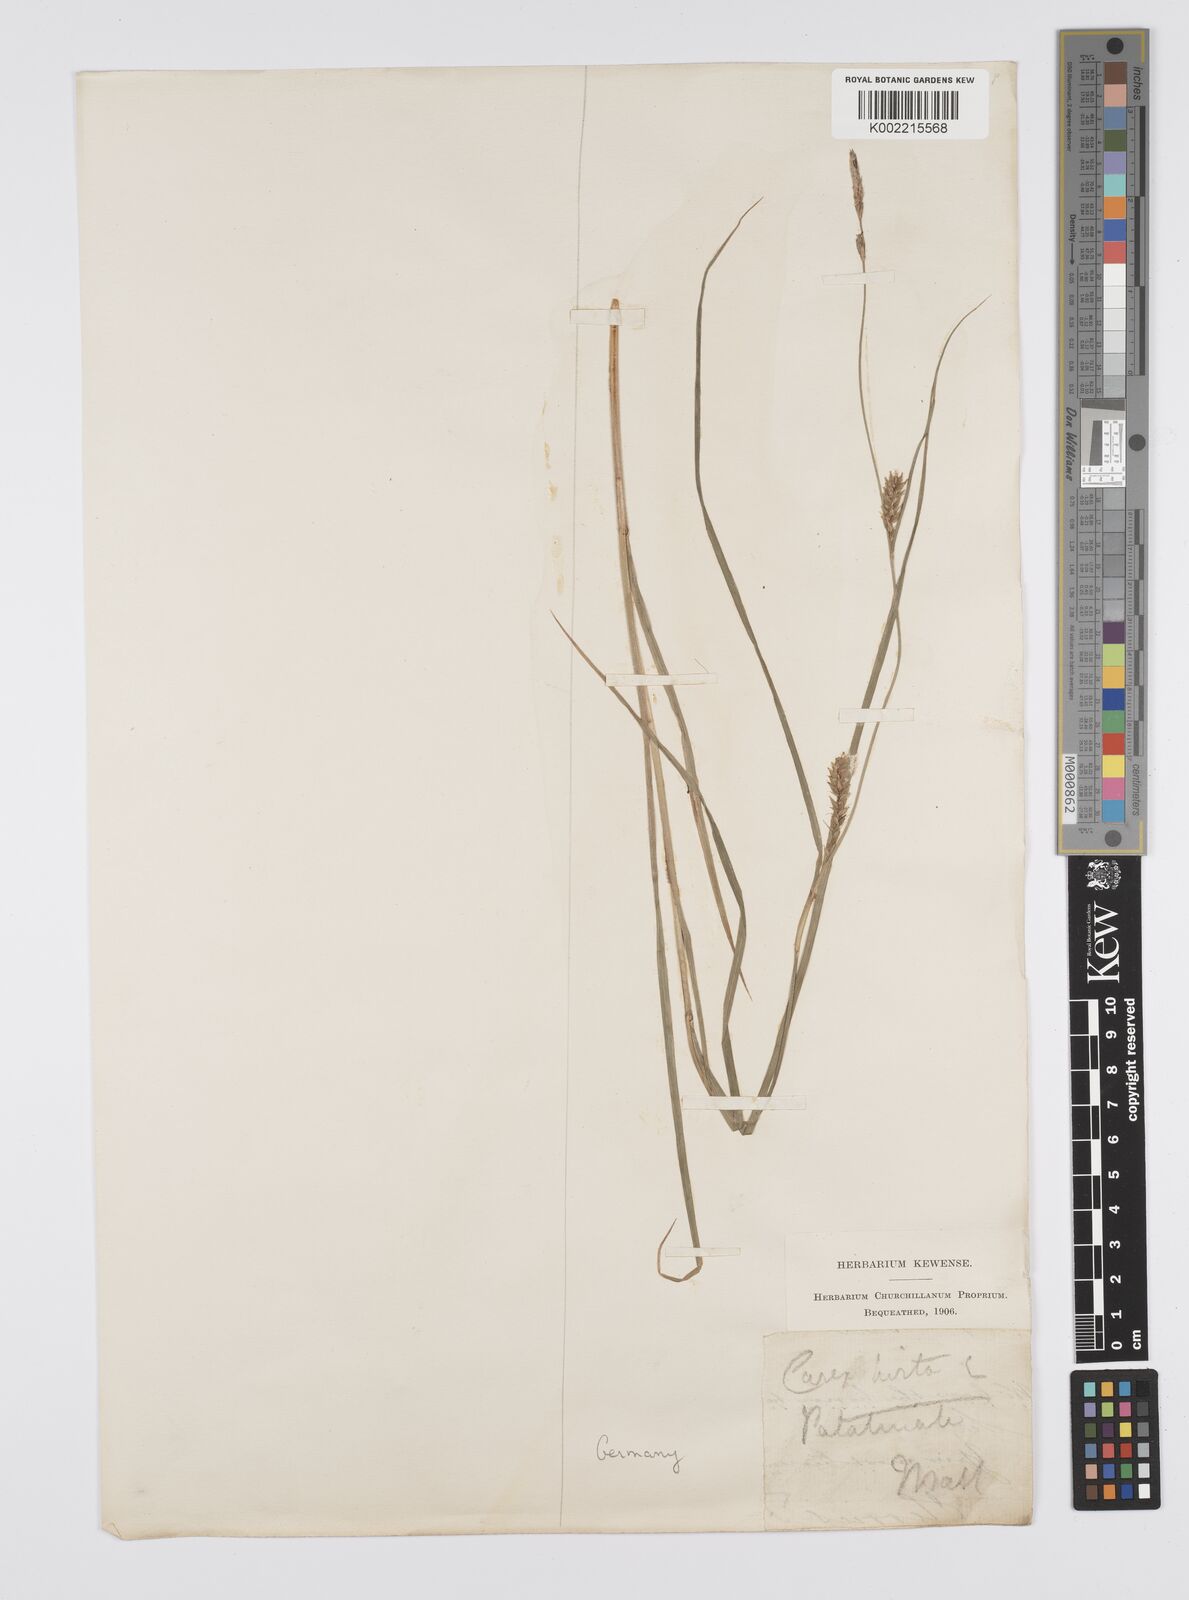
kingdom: Plantae
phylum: Tracheophyta
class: Liliopsida
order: Poales
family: Cyperaceae
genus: Carex
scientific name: Carex hirta
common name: Hairy sedge
